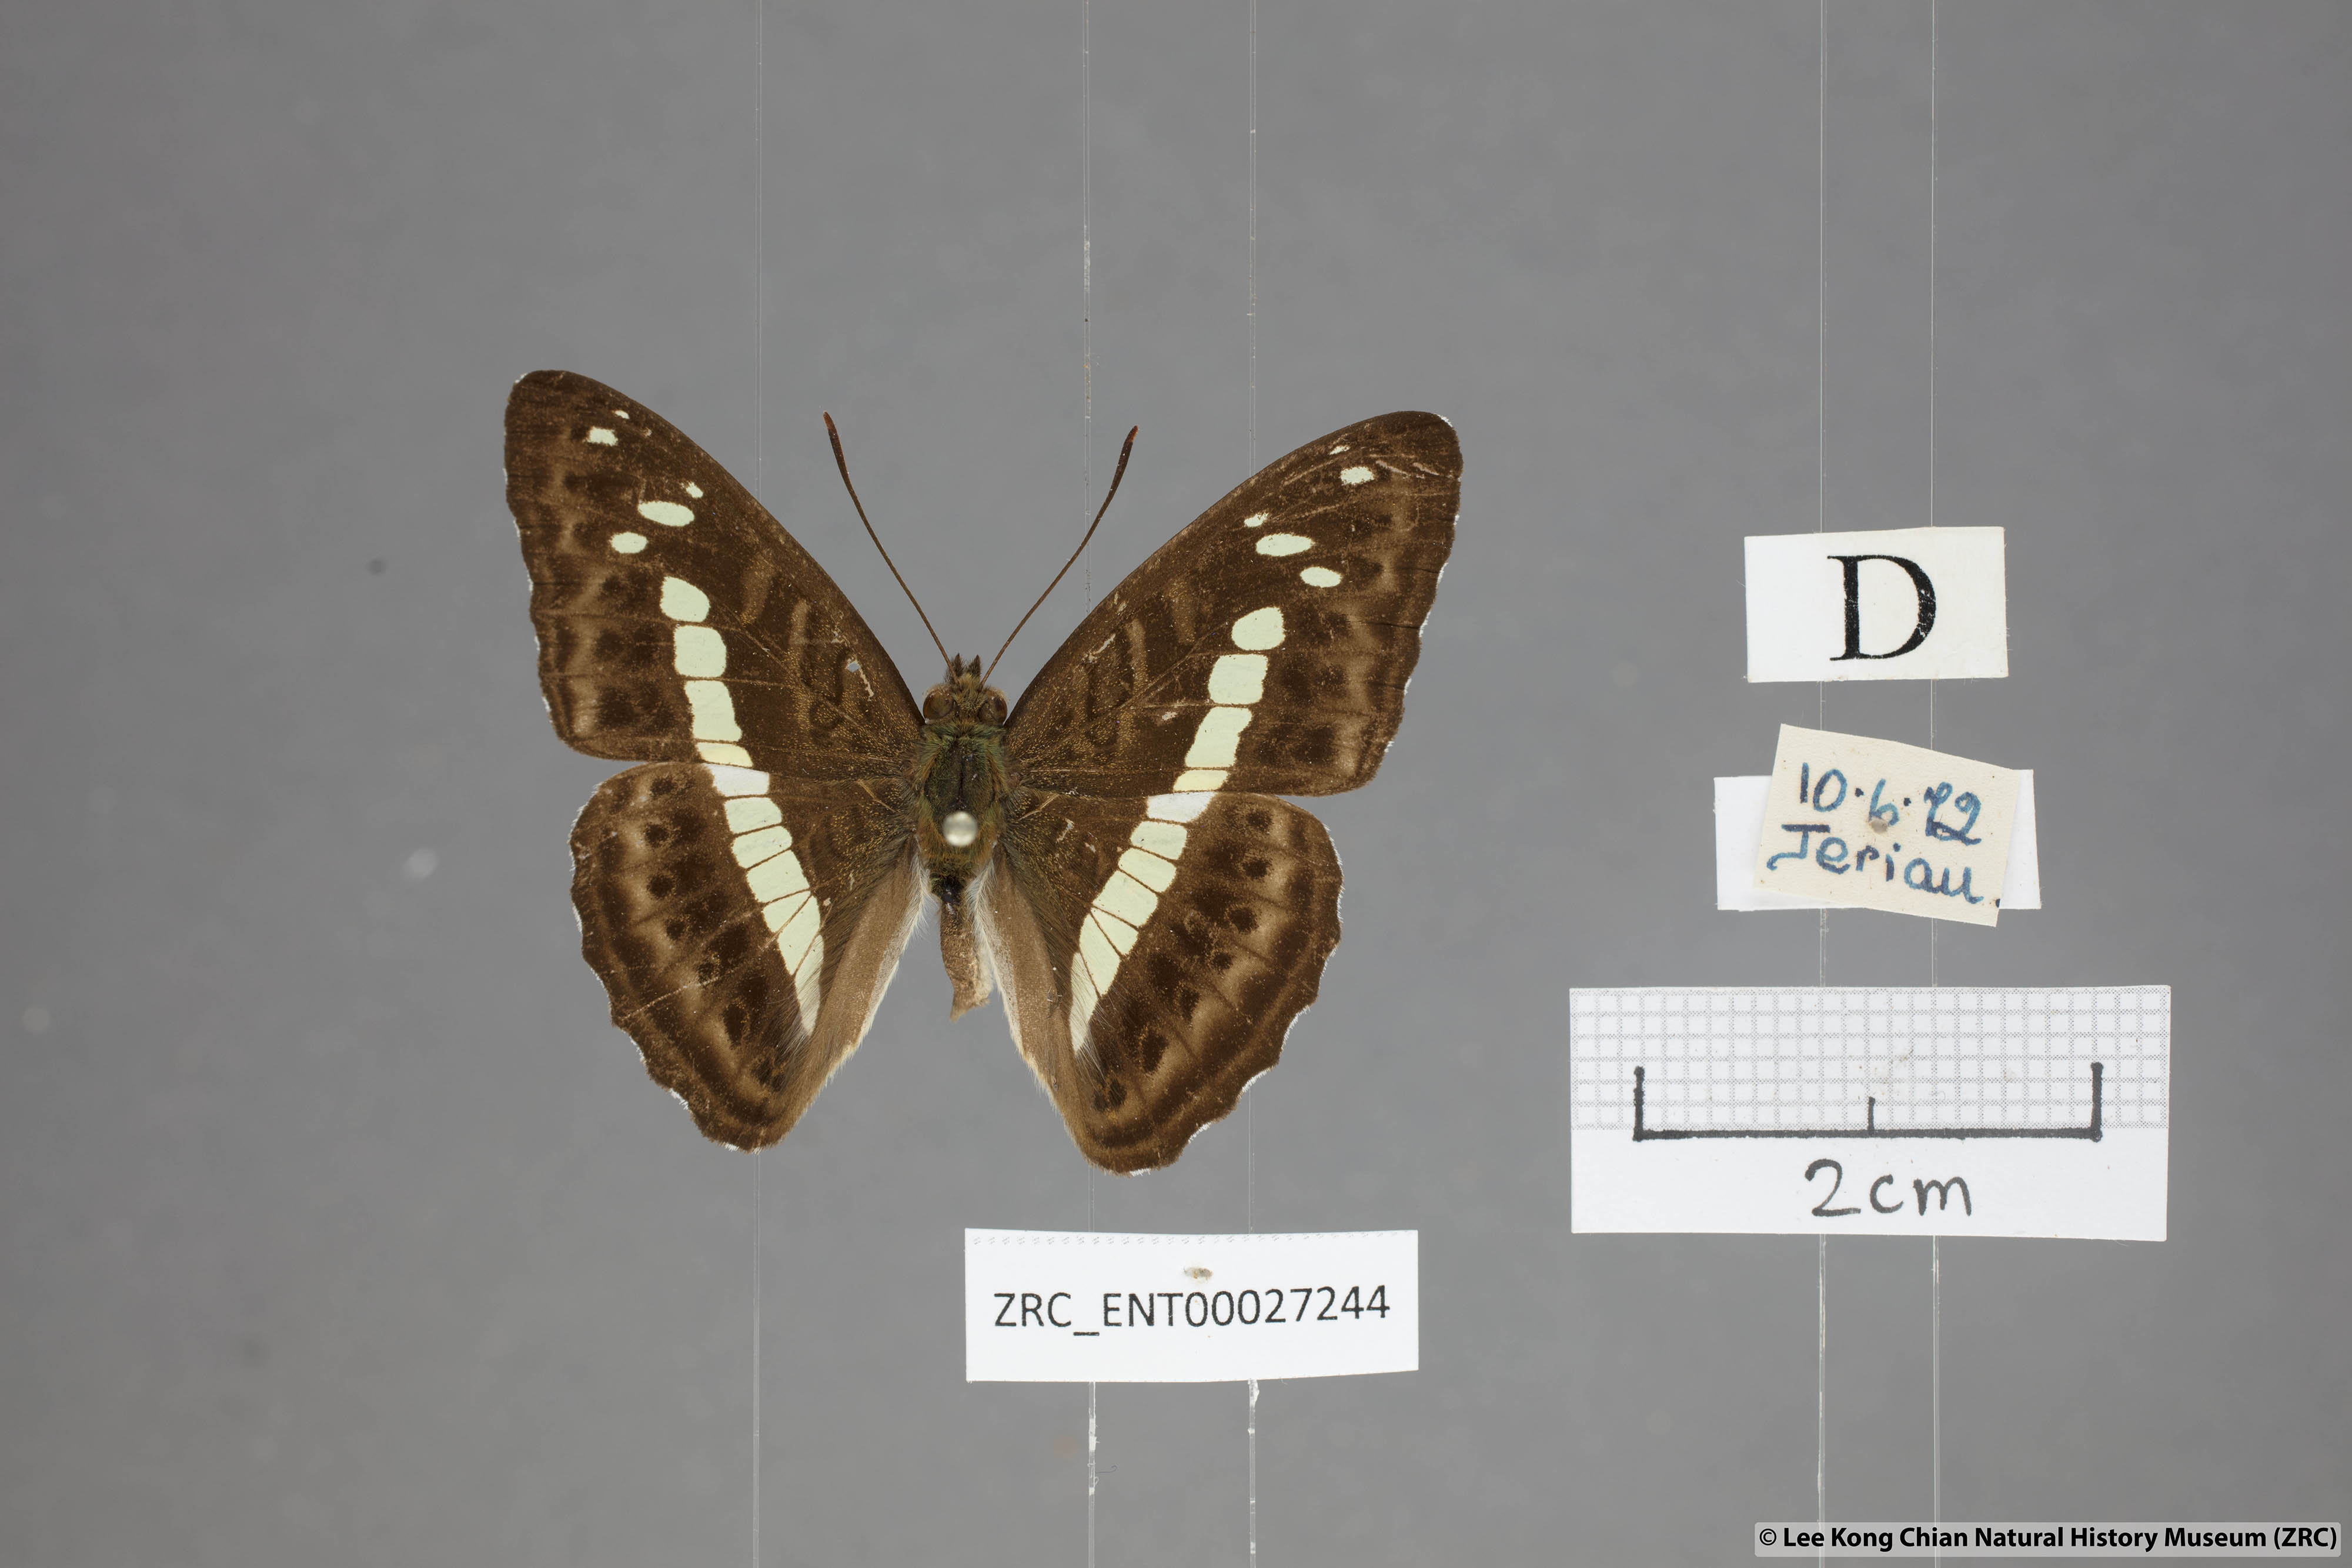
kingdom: Animalia
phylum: Arthropoda
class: Insecta
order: Lepidoptera
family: Nymphalidae
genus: Limenitis
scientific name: Limenitis
